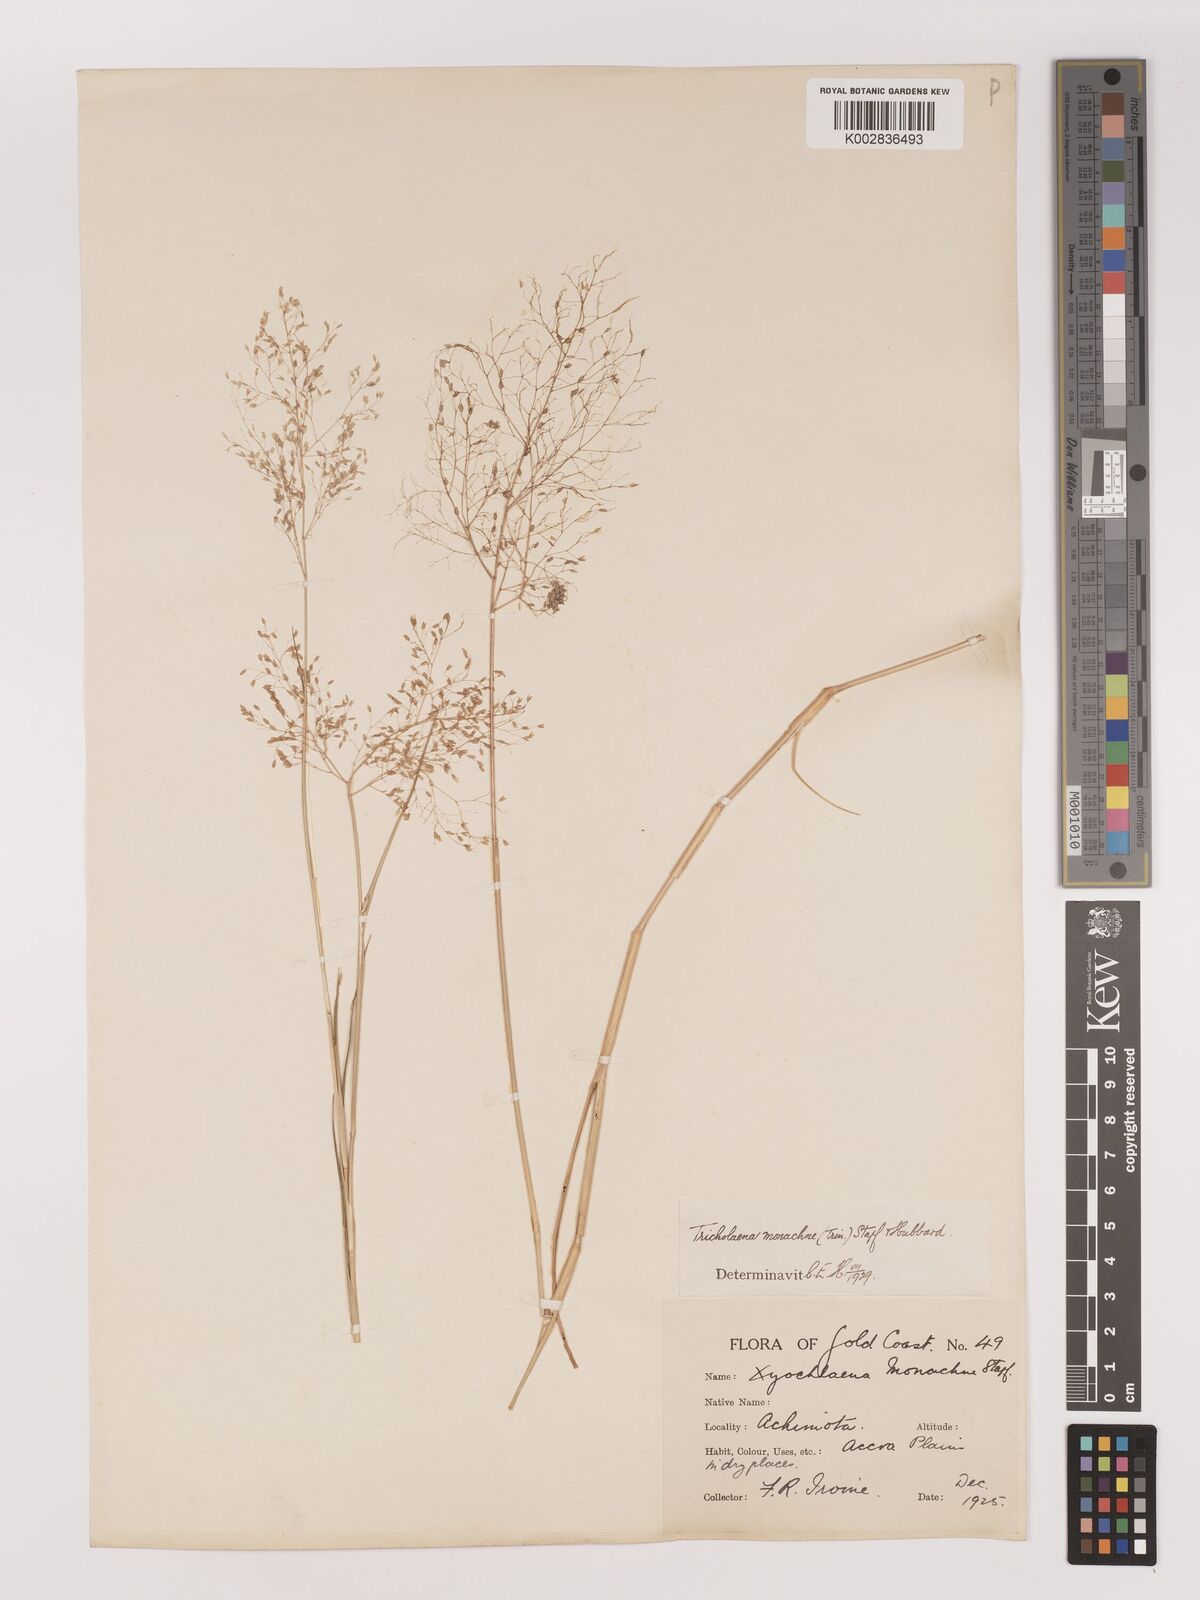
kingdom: Plantae
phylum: Tracheophyta
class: Liliopsida
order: Poales
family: Poaceae
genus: Tricholaena
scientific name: Tricholaena monachne
